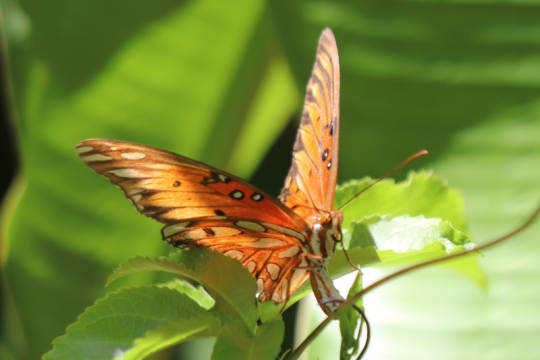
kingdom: Animalia
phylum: Arthropoda
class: Insecta
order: Lepidoptera
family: Nymphalidae
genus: Dione
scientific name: Dione vanillae
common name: Gulf Fritillary
